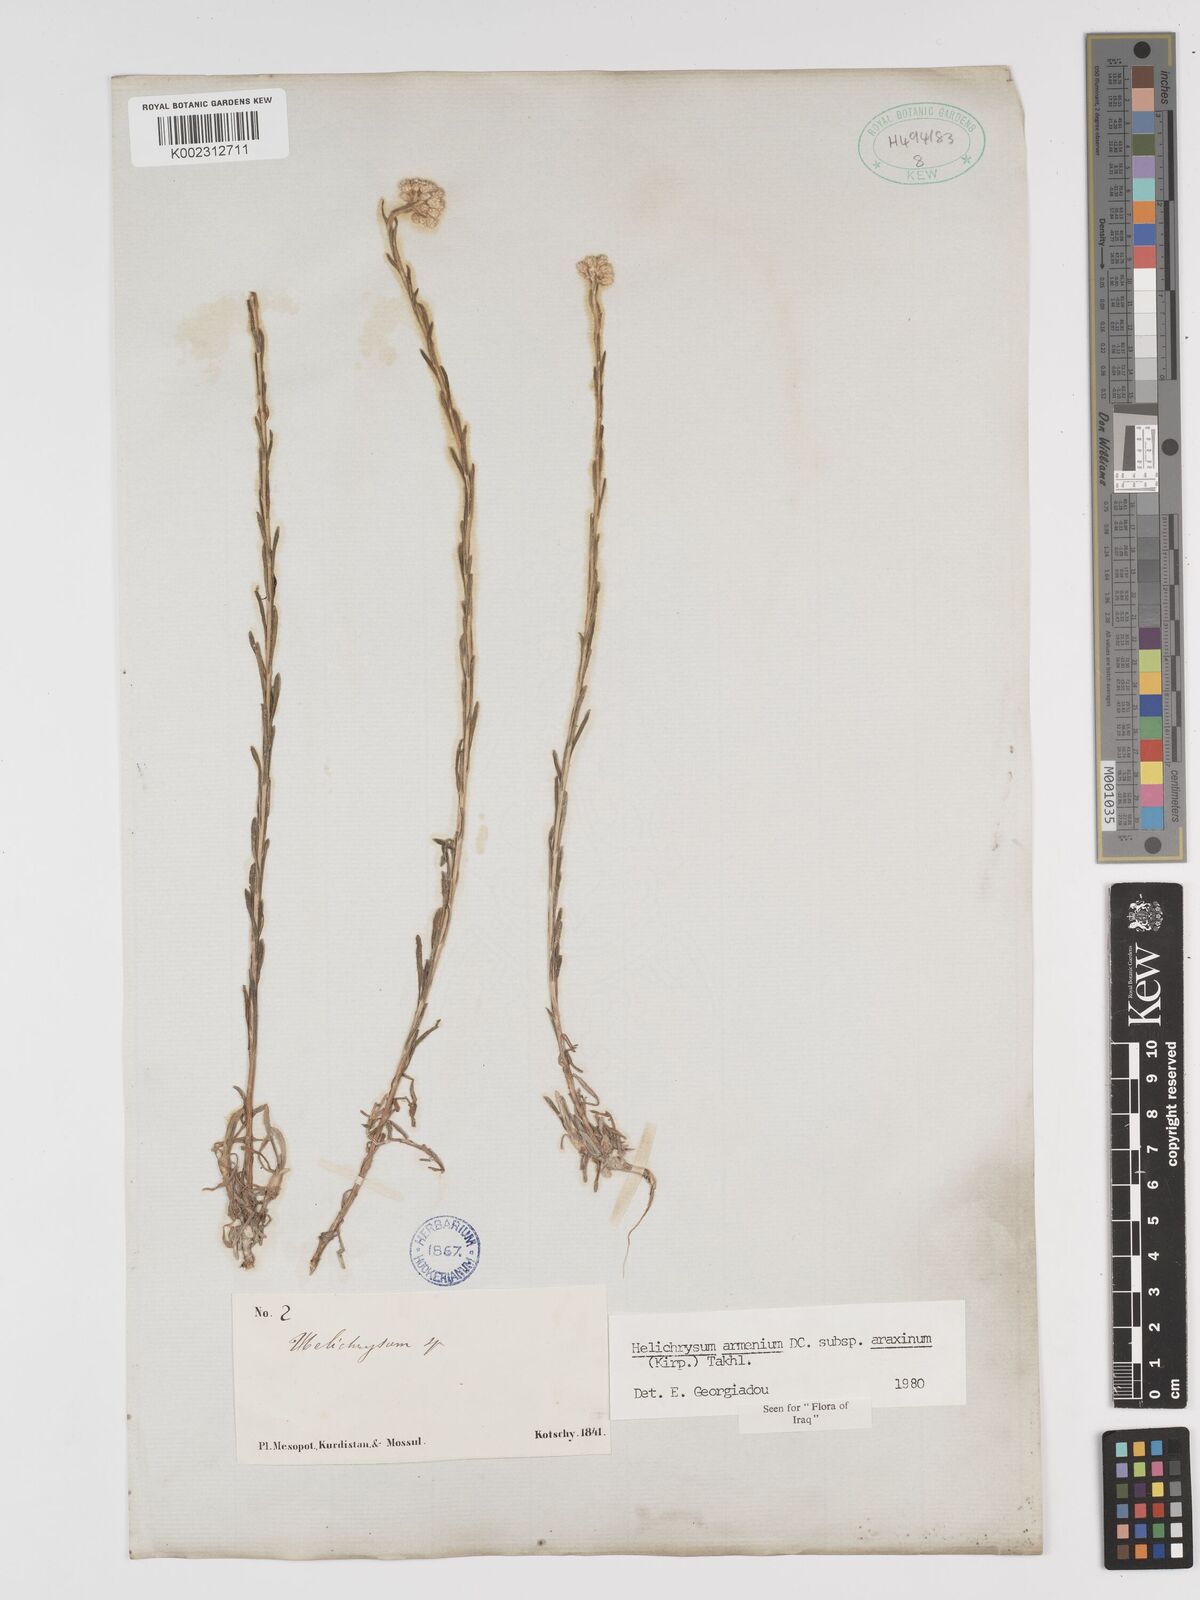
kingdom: Plantae
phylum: Tracheophyta
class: Magnoliopsida
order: Asterales
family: Asteraceae
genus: Helichrysum
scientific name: Helichrysum araxinum
